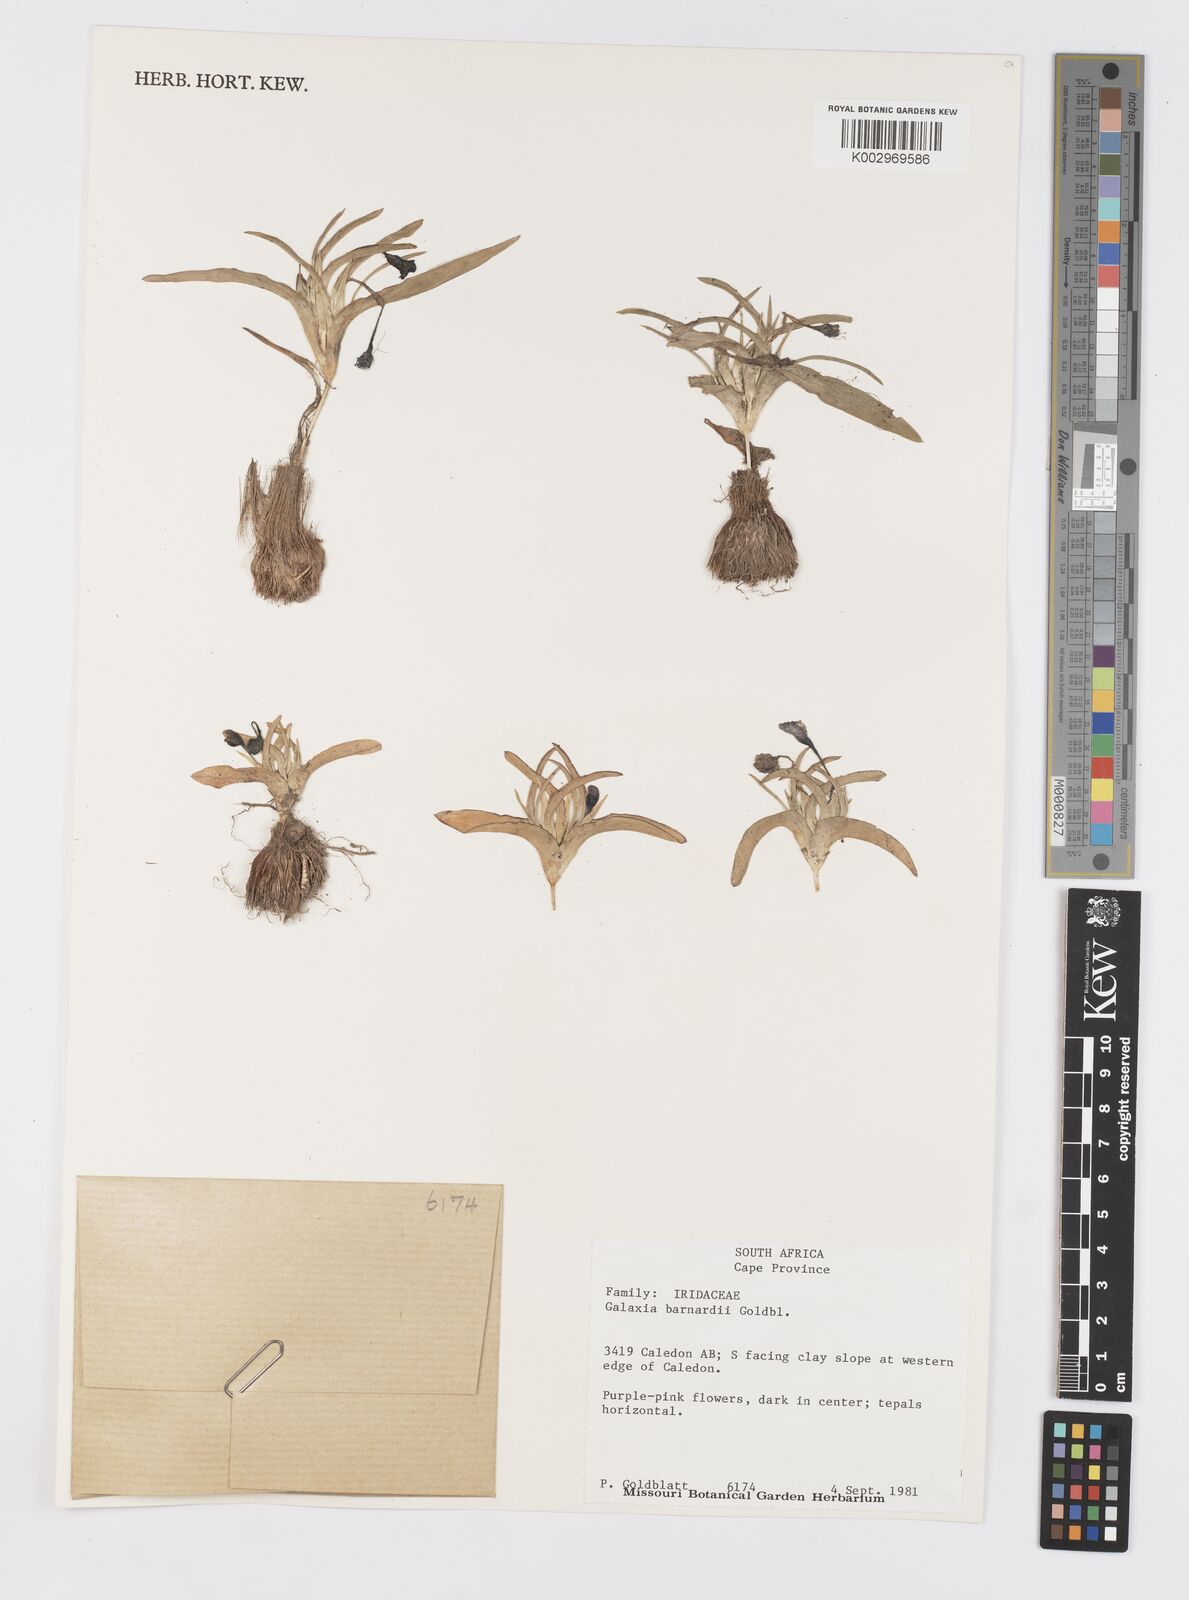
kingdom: Plantae
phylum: Tracheophyta
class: Liliopsida
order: Asparagales
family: Iridaceae
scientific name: Iridaceae
